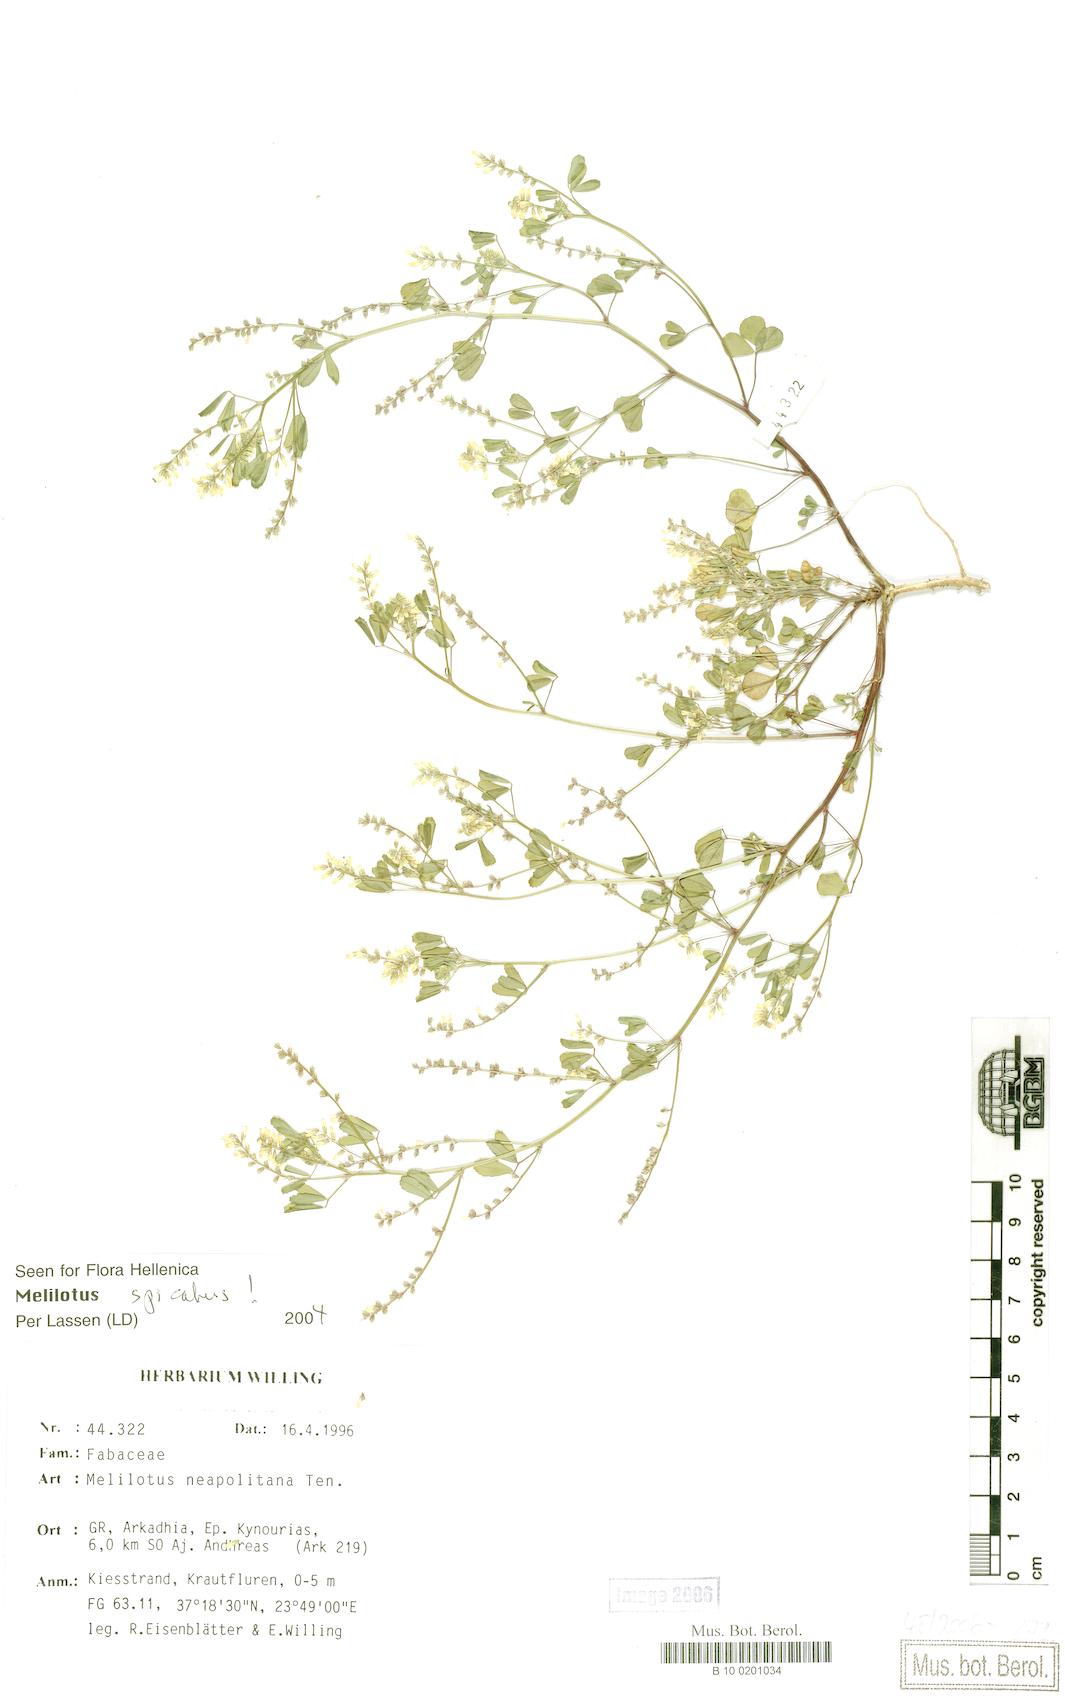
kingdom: Plantae
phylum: Tracheophyta
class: Magnoliopsida
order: Fabales
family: Fabaceae
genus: Melilotus
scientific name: Melilotus neapolitanus
